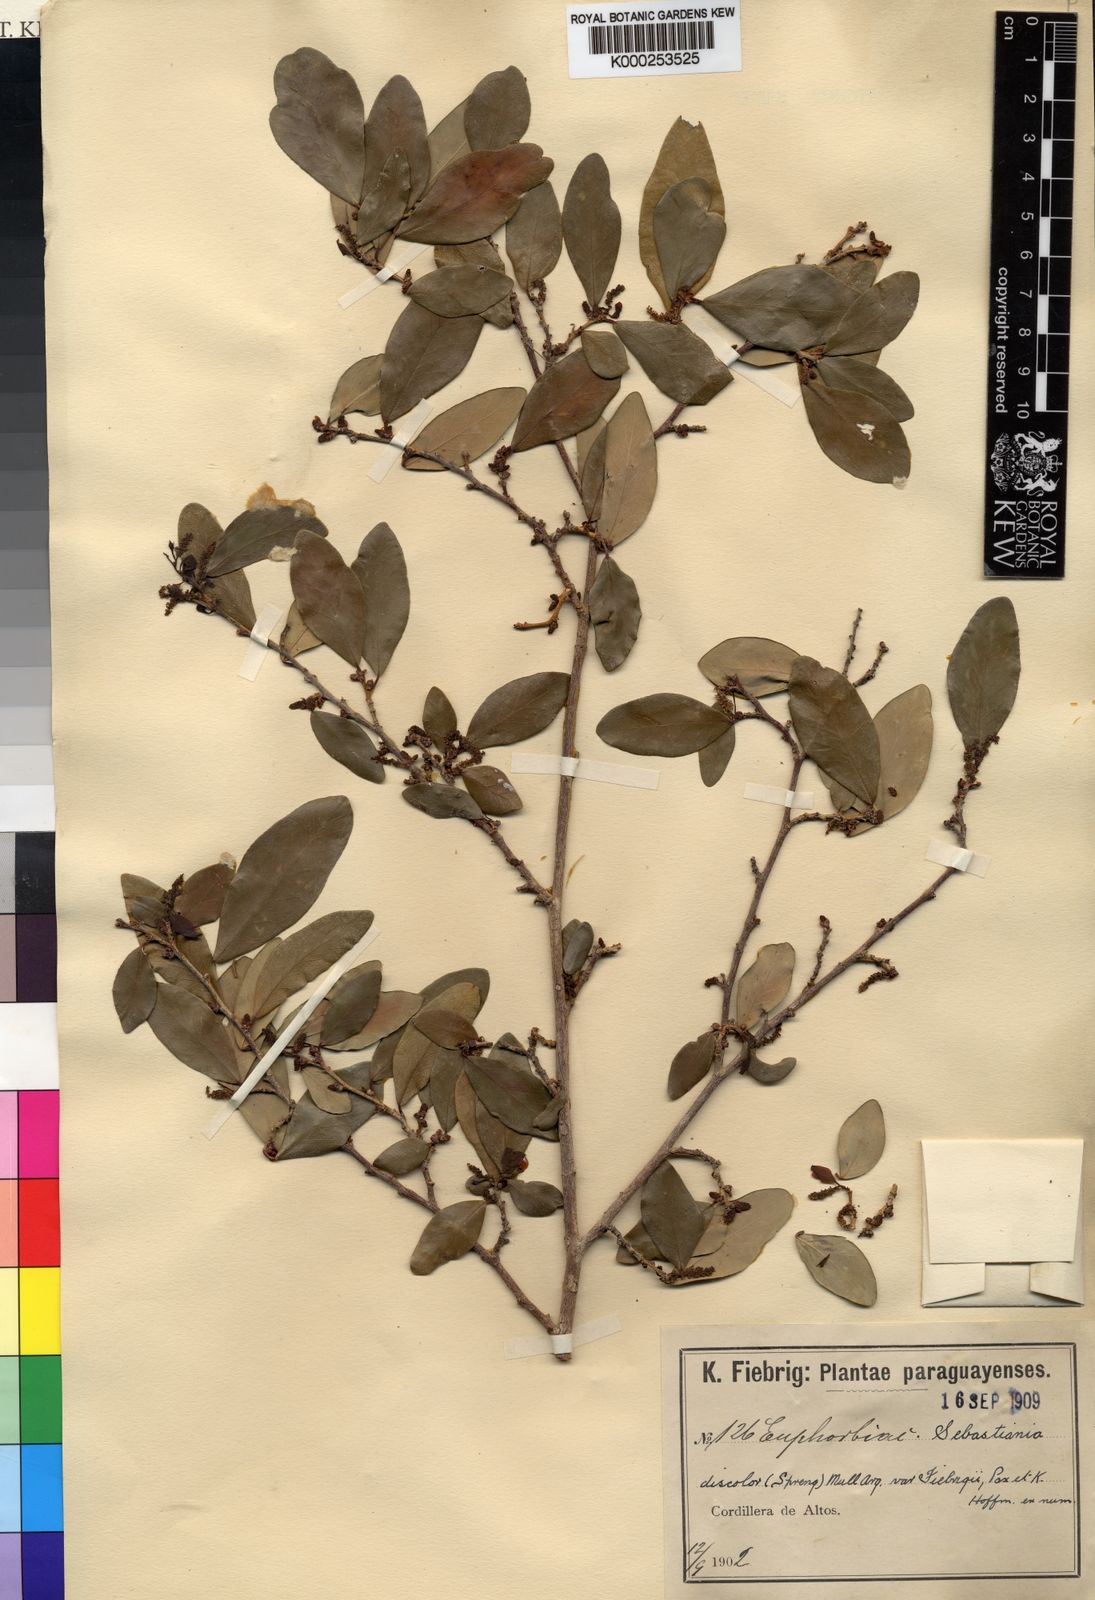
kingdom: Plantae
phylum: Tracheophyta
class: Magnoliopsida
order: Malpighiales
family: Euphorbiaceae
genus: Gymnanthes
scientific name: Gymnanthes
